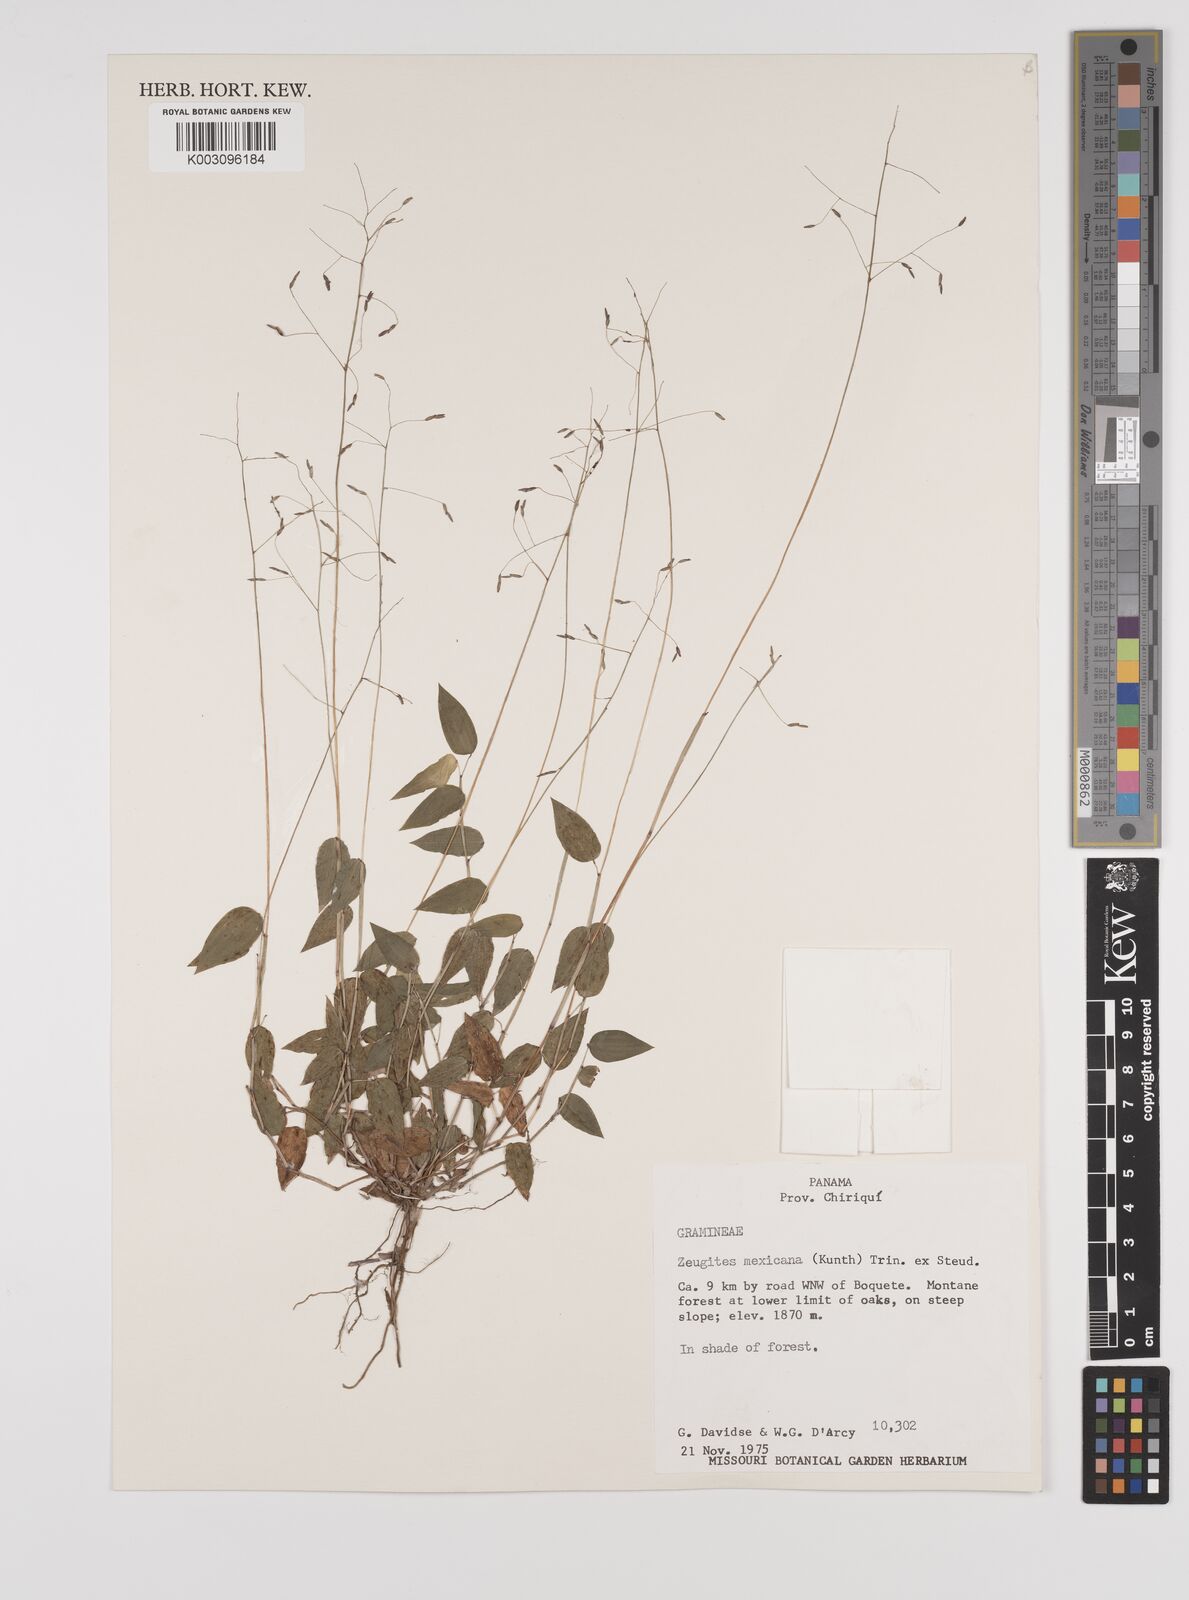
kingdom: Plantae
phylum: Tracheophyta
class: Liliopsida
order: Poales
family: Poaceae
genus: Zeugites
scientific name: Zeugites americanus
